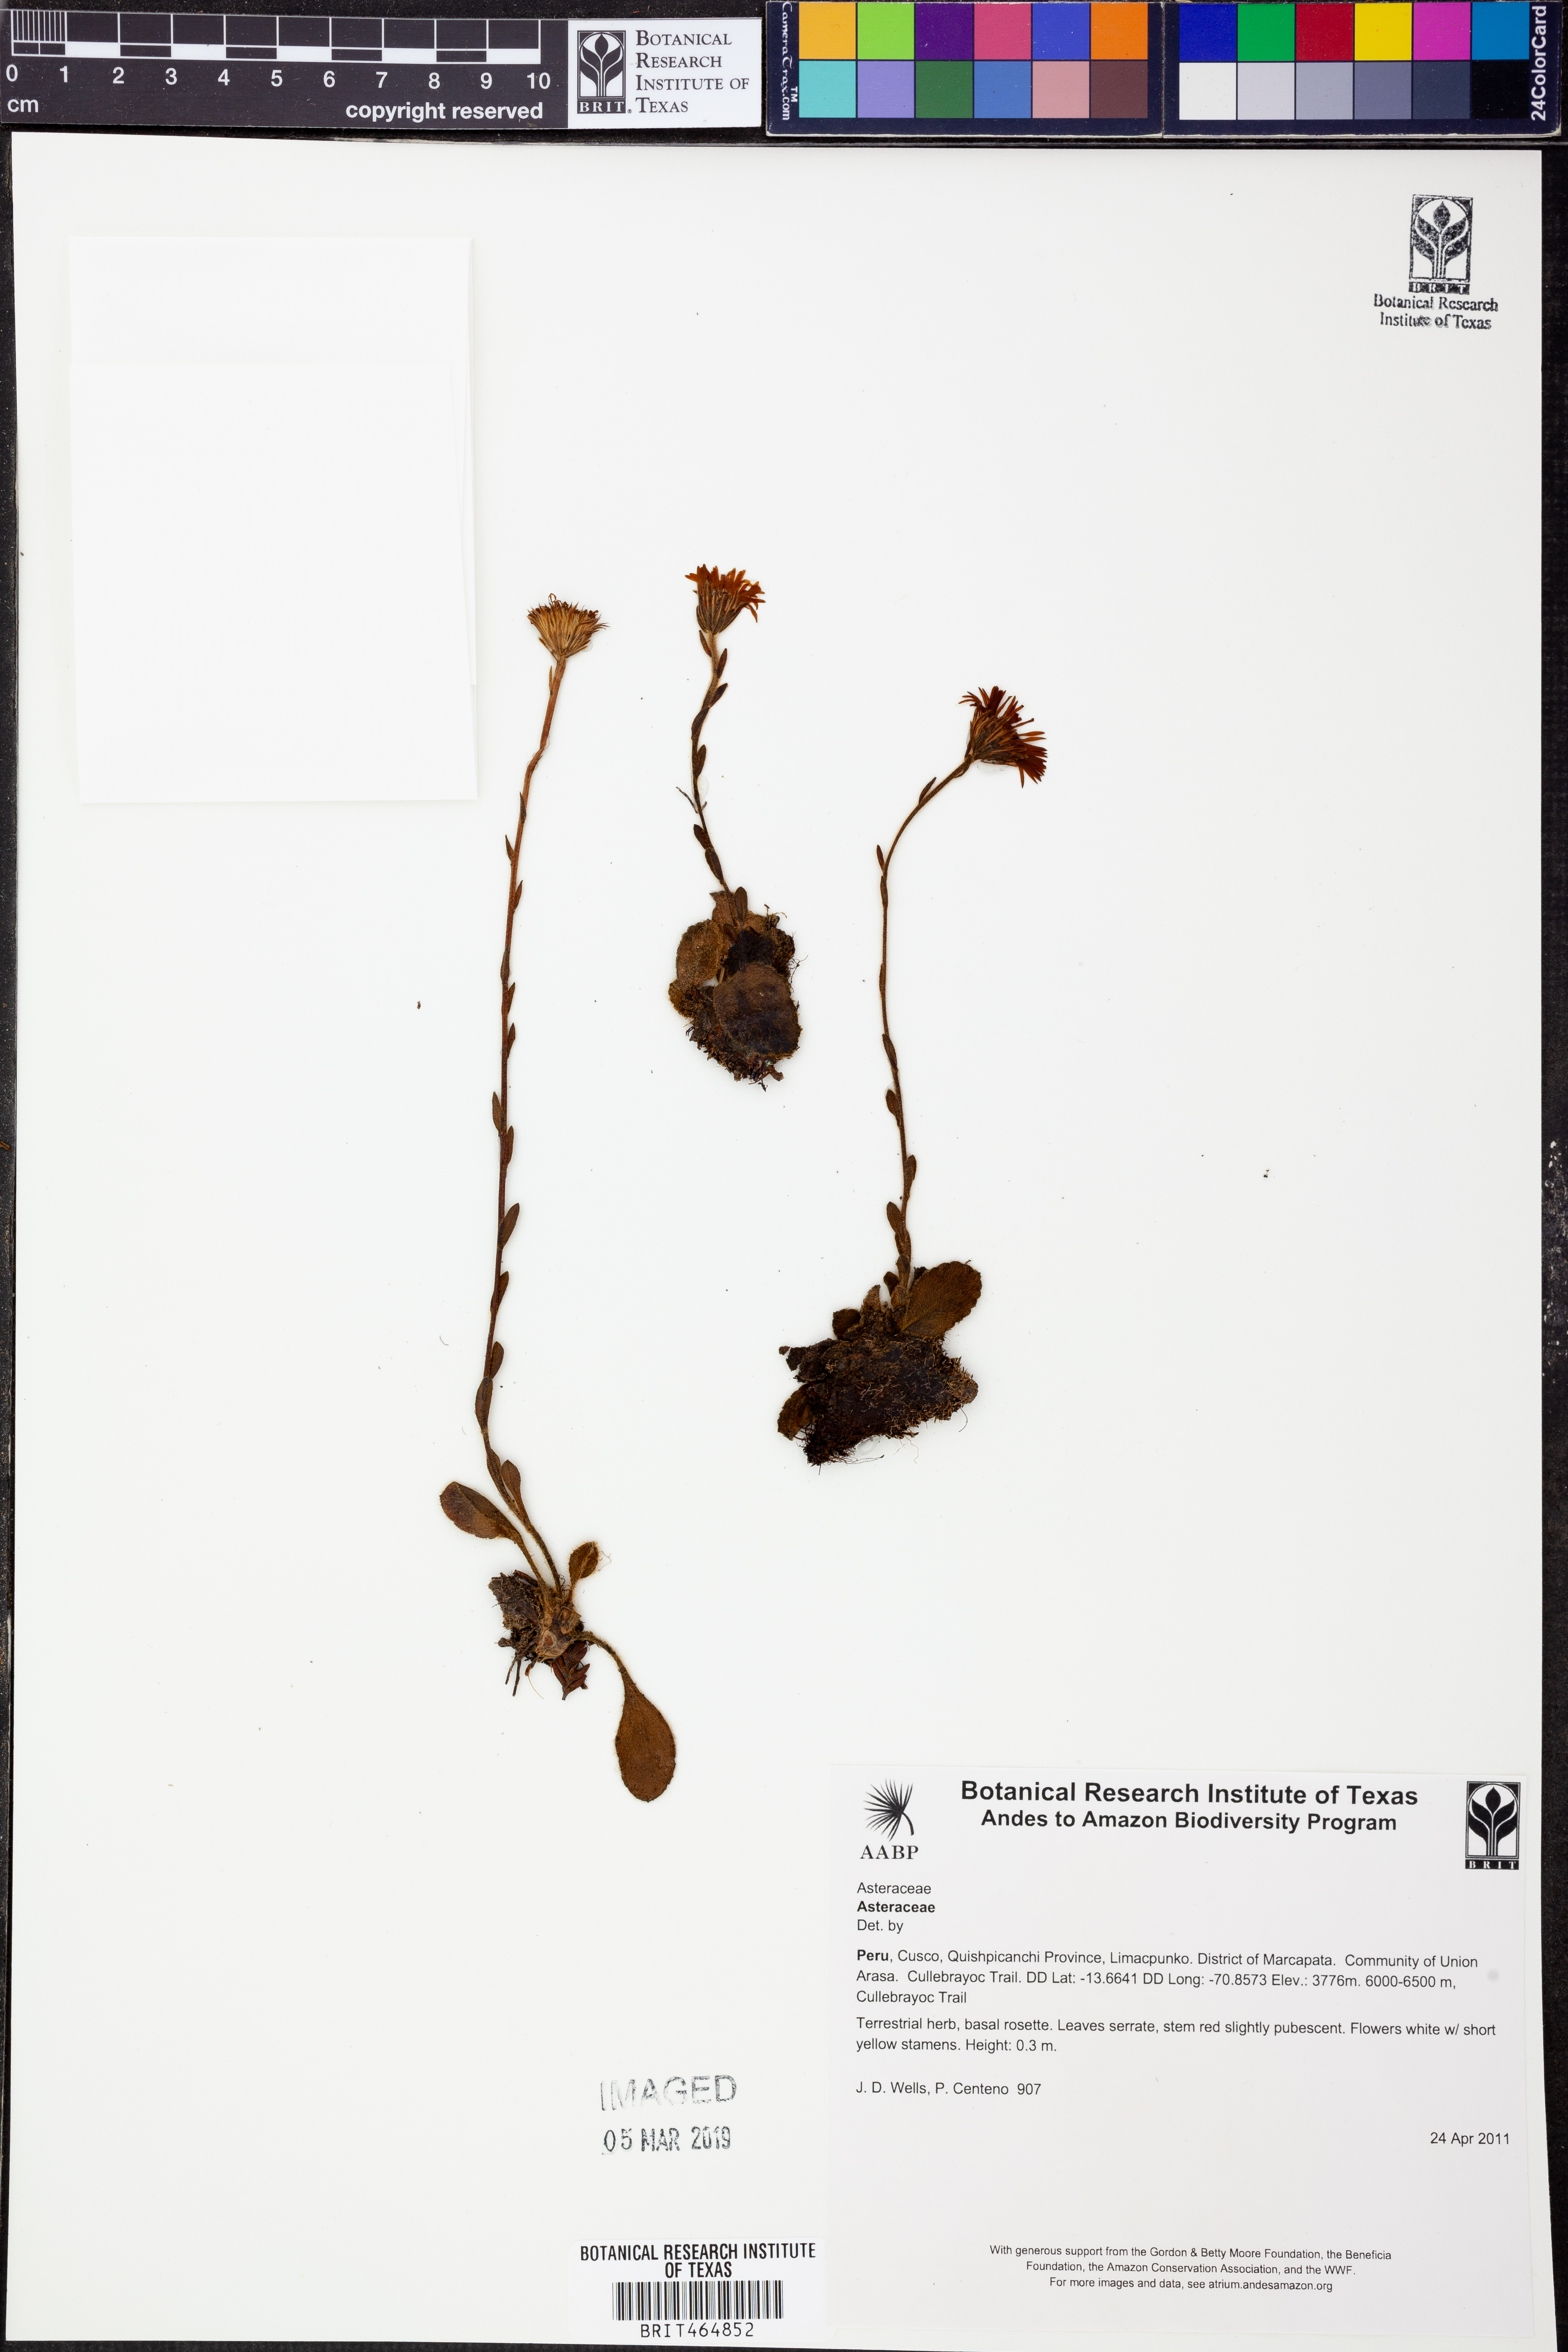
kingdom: Plantae
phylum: Tracheophyta
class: Magnoliopsida
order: Asterales
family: Asteraceae
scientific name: Asteraceae
